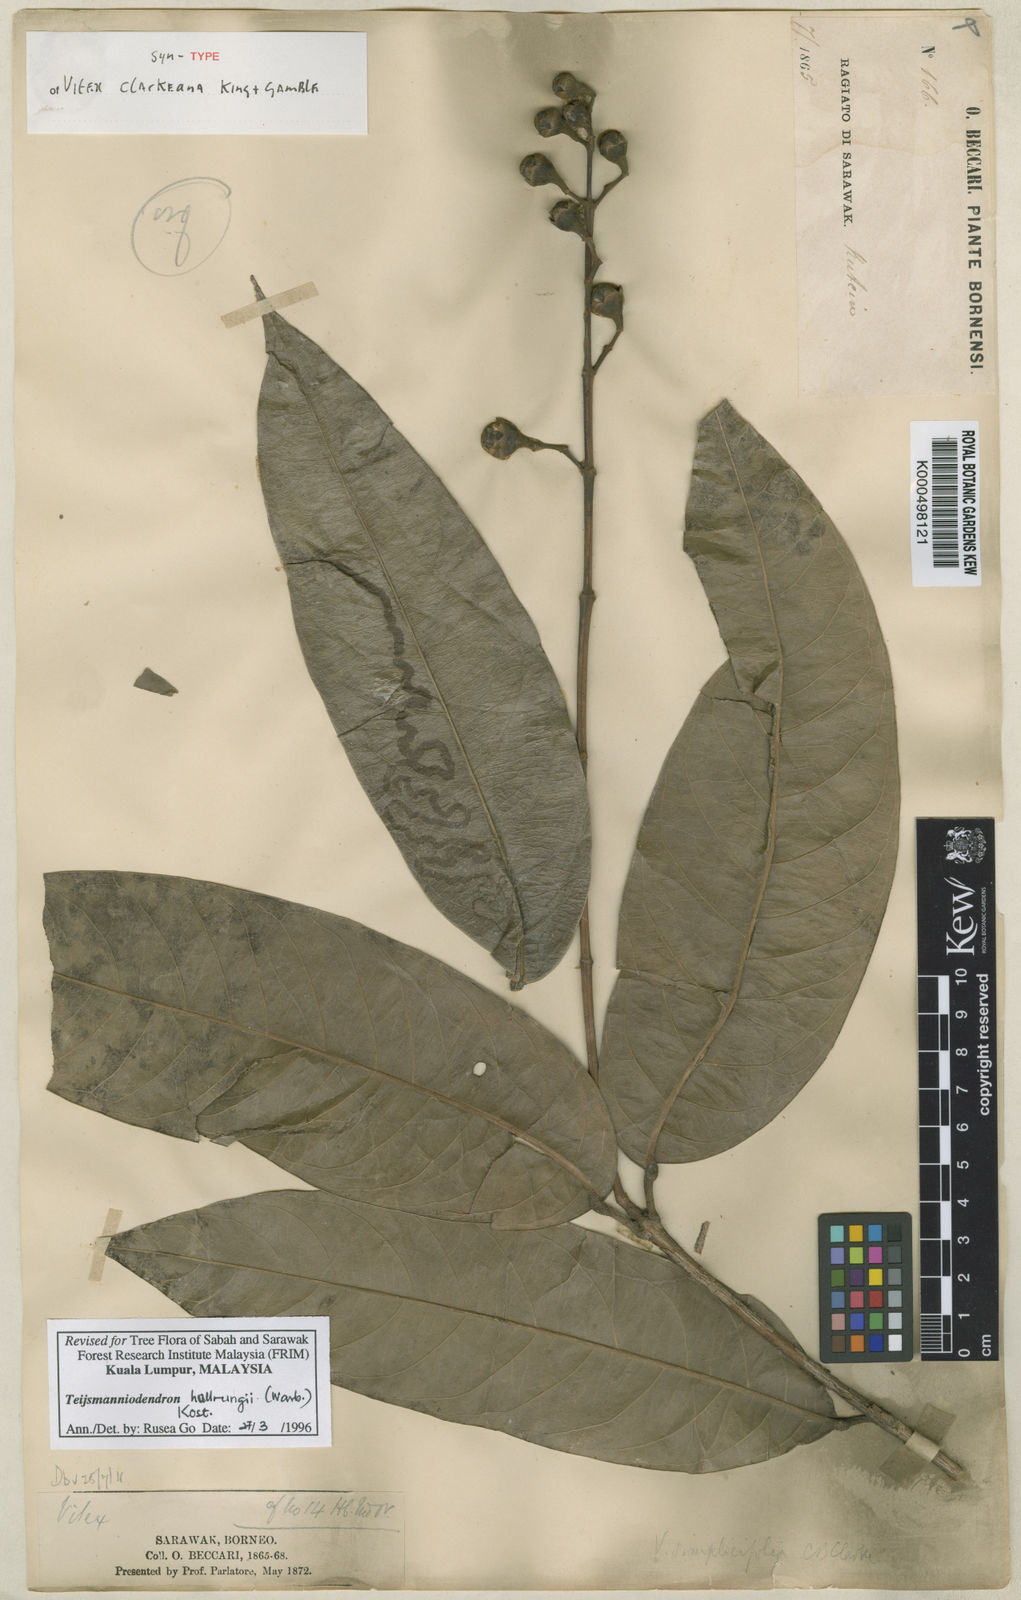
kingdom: Plantae
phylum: Tracheophyta
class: Magnoliopsida
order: Lamiales
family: Lamiaceae
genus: Teijsmanniodendron
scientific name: Teijsmanniodendron hollrungii
